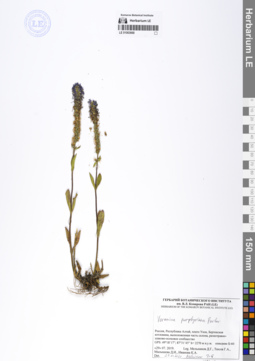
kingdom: Plantae
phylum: Tracheophyta
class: Magnoliopsida
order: Lamiales
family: Plantaginaceae
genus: Veronica
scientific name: Veronica porphyriana
